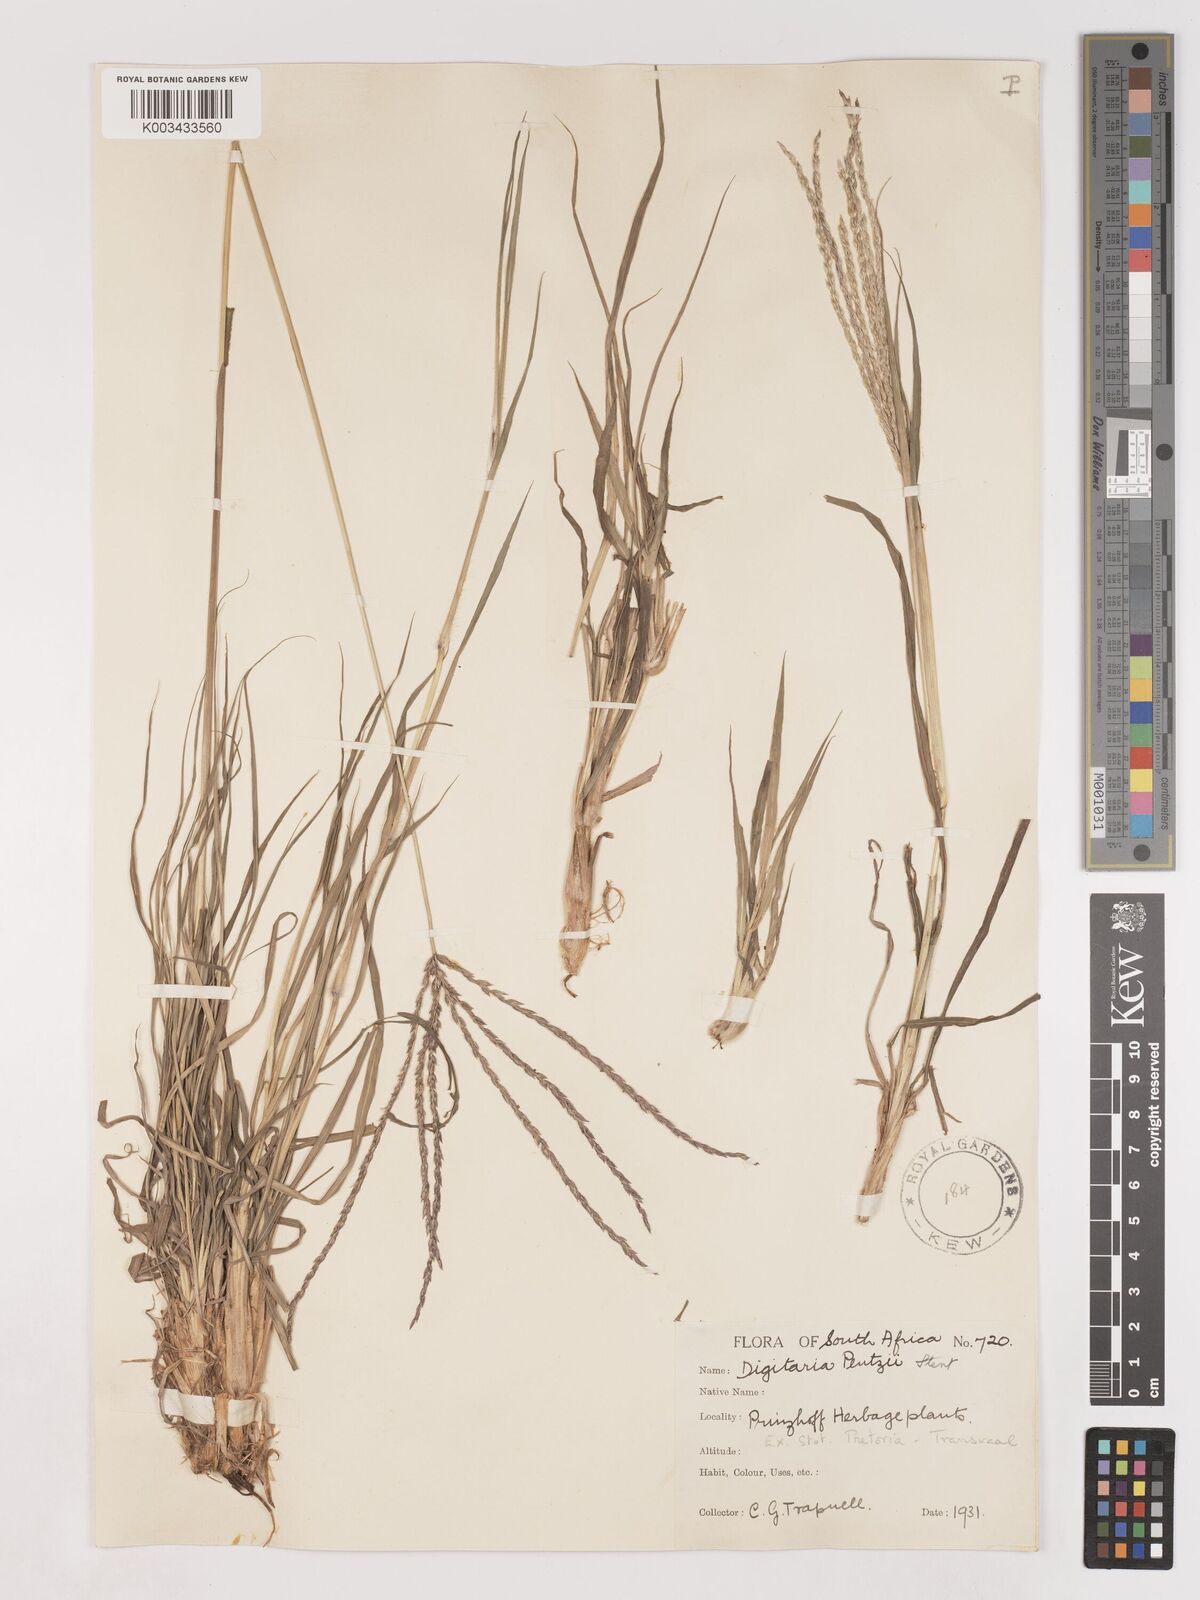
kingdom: Plantae
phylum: Tracheophyta
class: Liliopsida
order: Poales
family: Poaceae
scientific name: Poaceae
